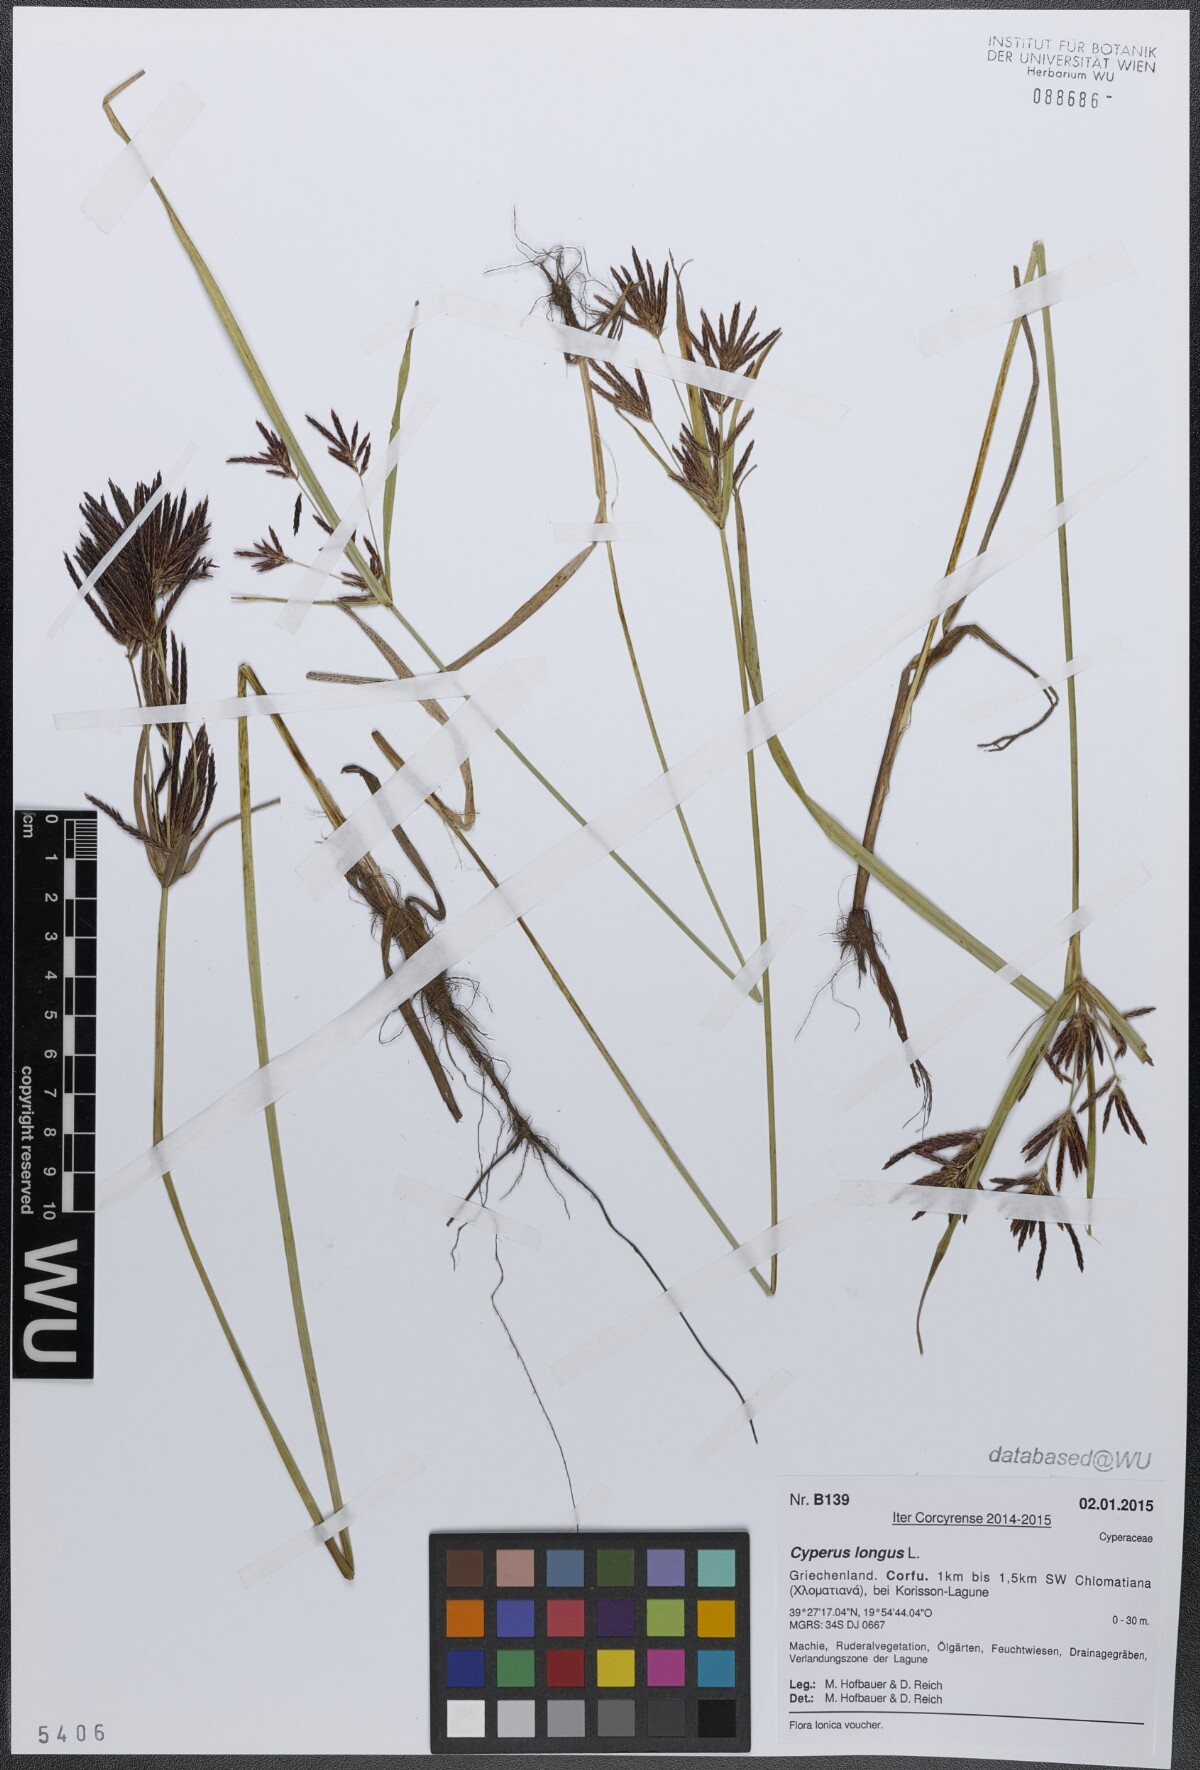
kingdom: Plantae
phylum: Tracheophyta
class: Liliopsida
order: Poales
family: Cyperaceae
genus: Cyperus
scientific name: Cyperus longus
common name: Galingale
